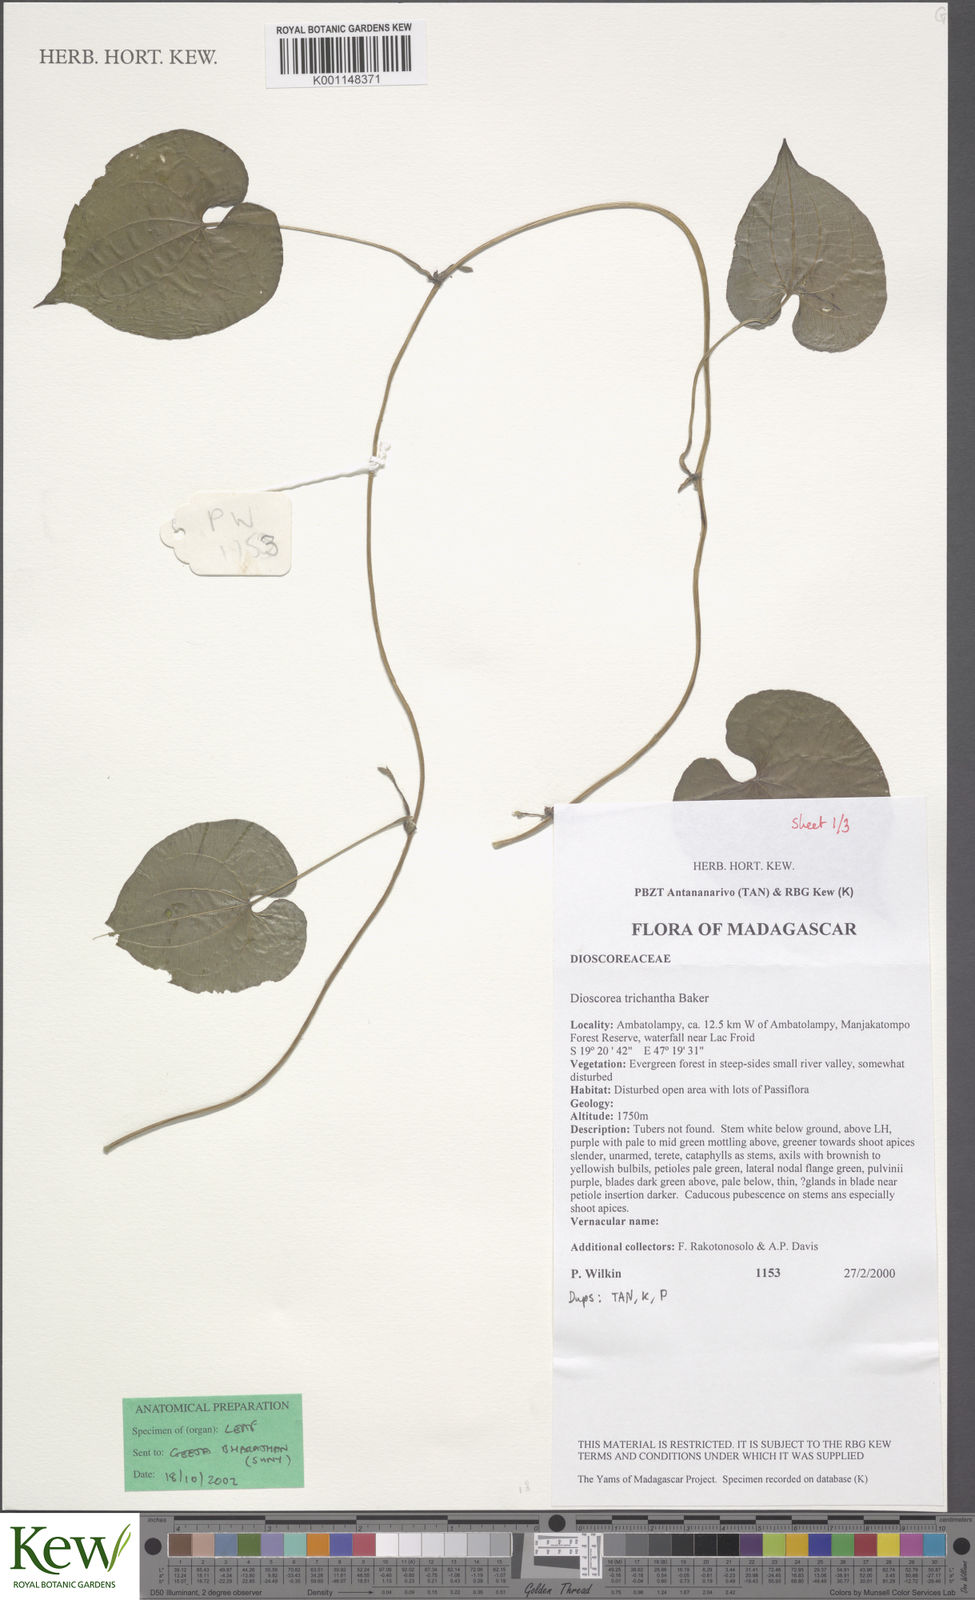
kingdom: Plantae
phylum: Tracheophyta
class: Liliopsida
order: Dioscoreales
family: Dioscoreaceae
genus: Dioscorea
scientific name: Dioscorea trichantha
